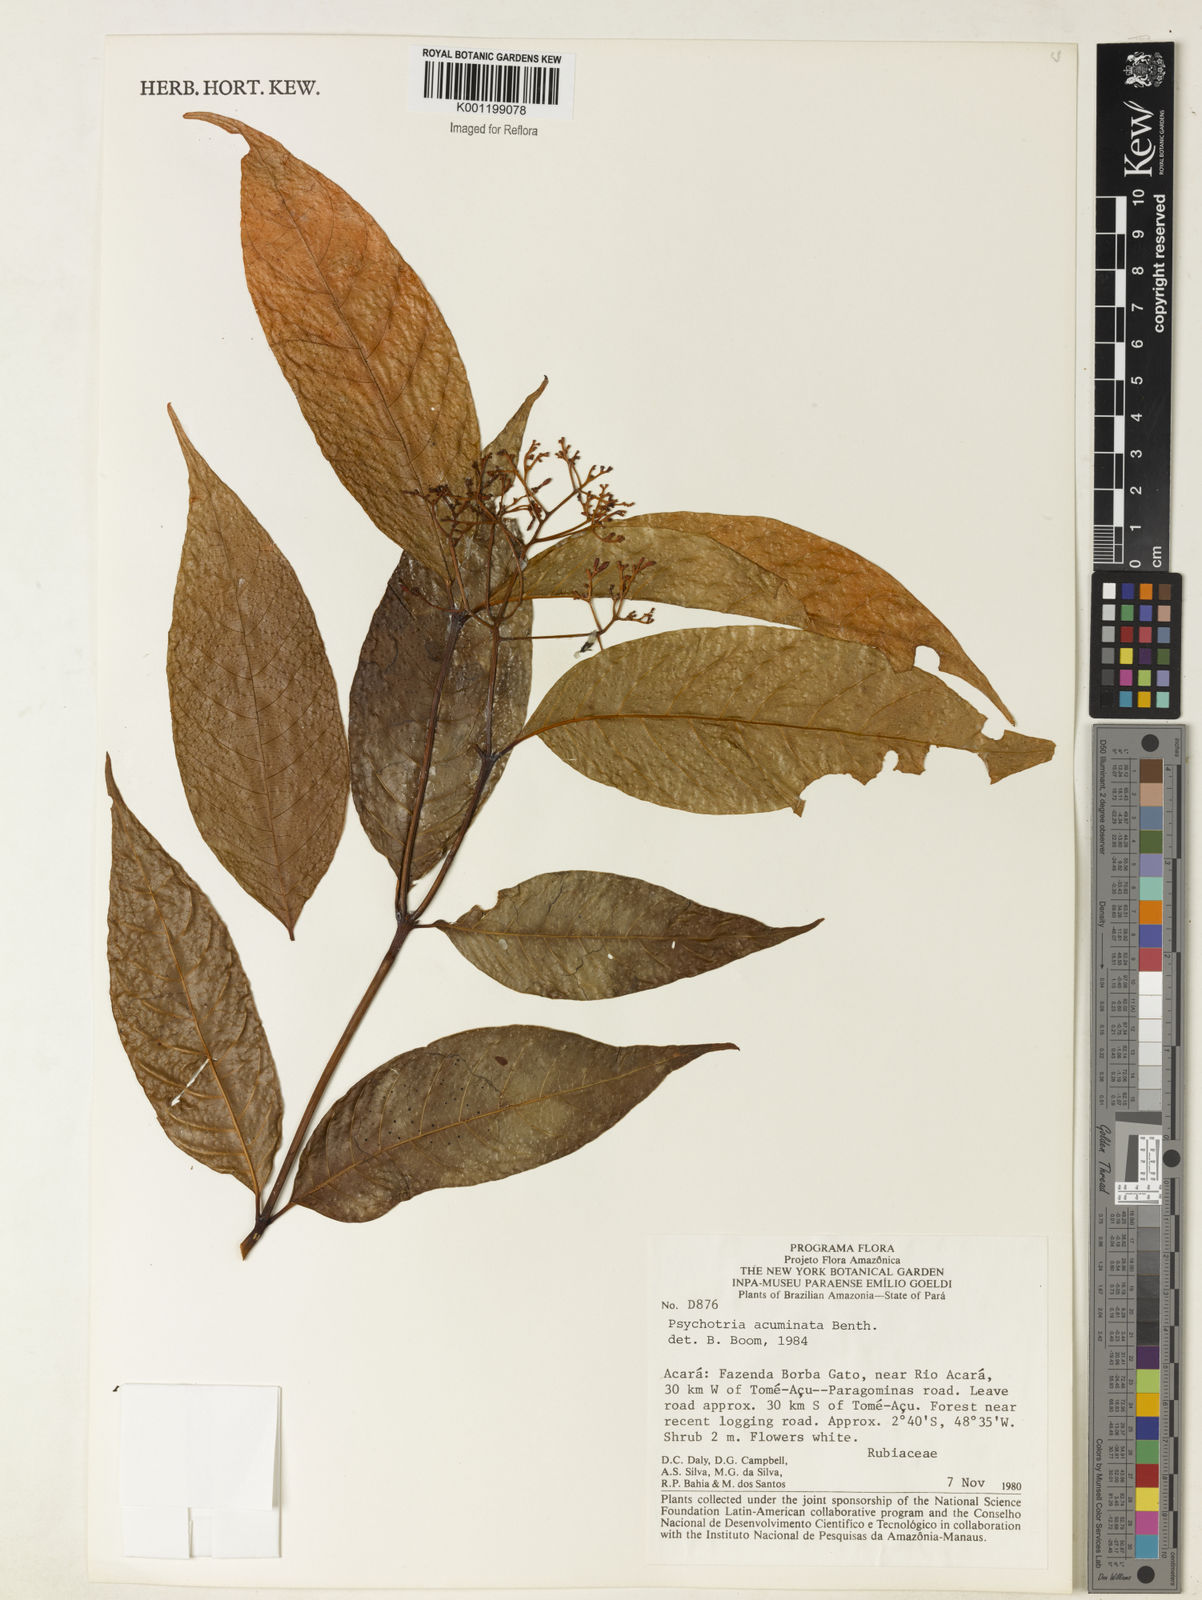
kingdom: Plantae
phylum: Tracheophyta
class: Magnoliopsida
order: Gentianales
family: Rubiaceae
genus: Palicourea
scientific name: Palicourea cuspidata
